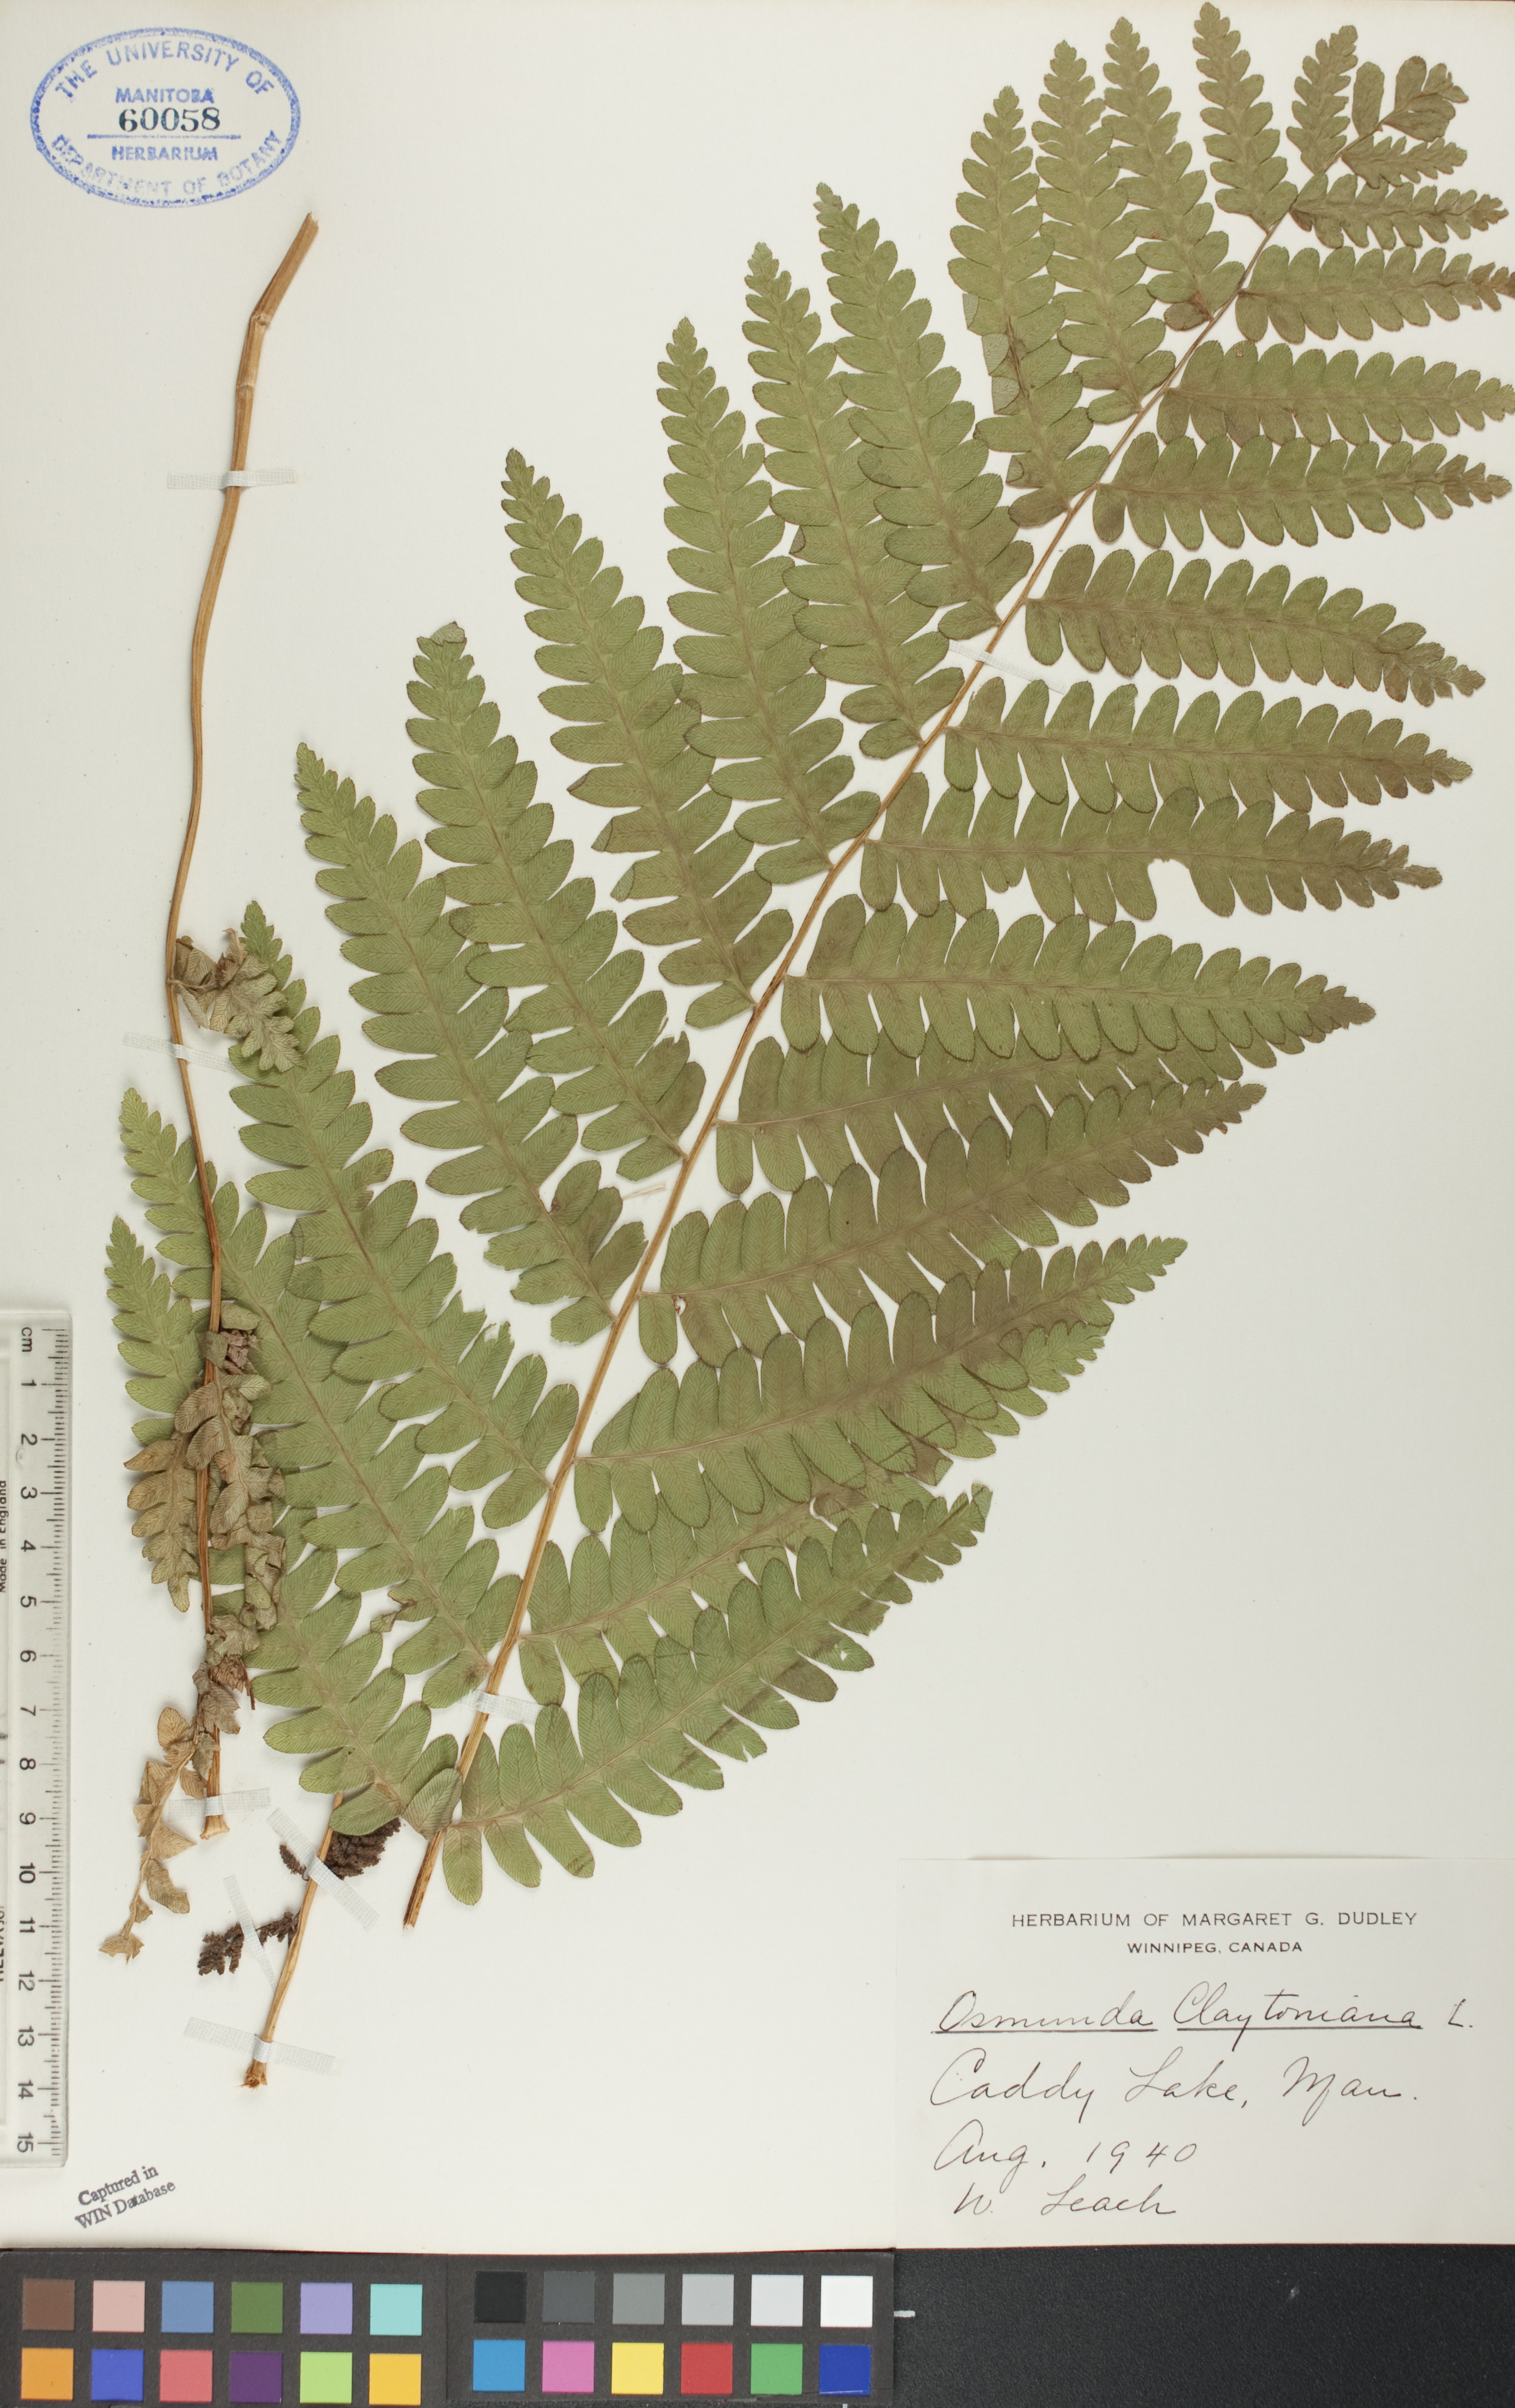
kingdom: Plantae
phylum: Tracheophyta
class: Polypodiopsida
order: Osmundales
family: Osmundaceae
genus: Claytosmunda
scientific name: Claytosmunda claytoniana
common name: Clayton's fern
